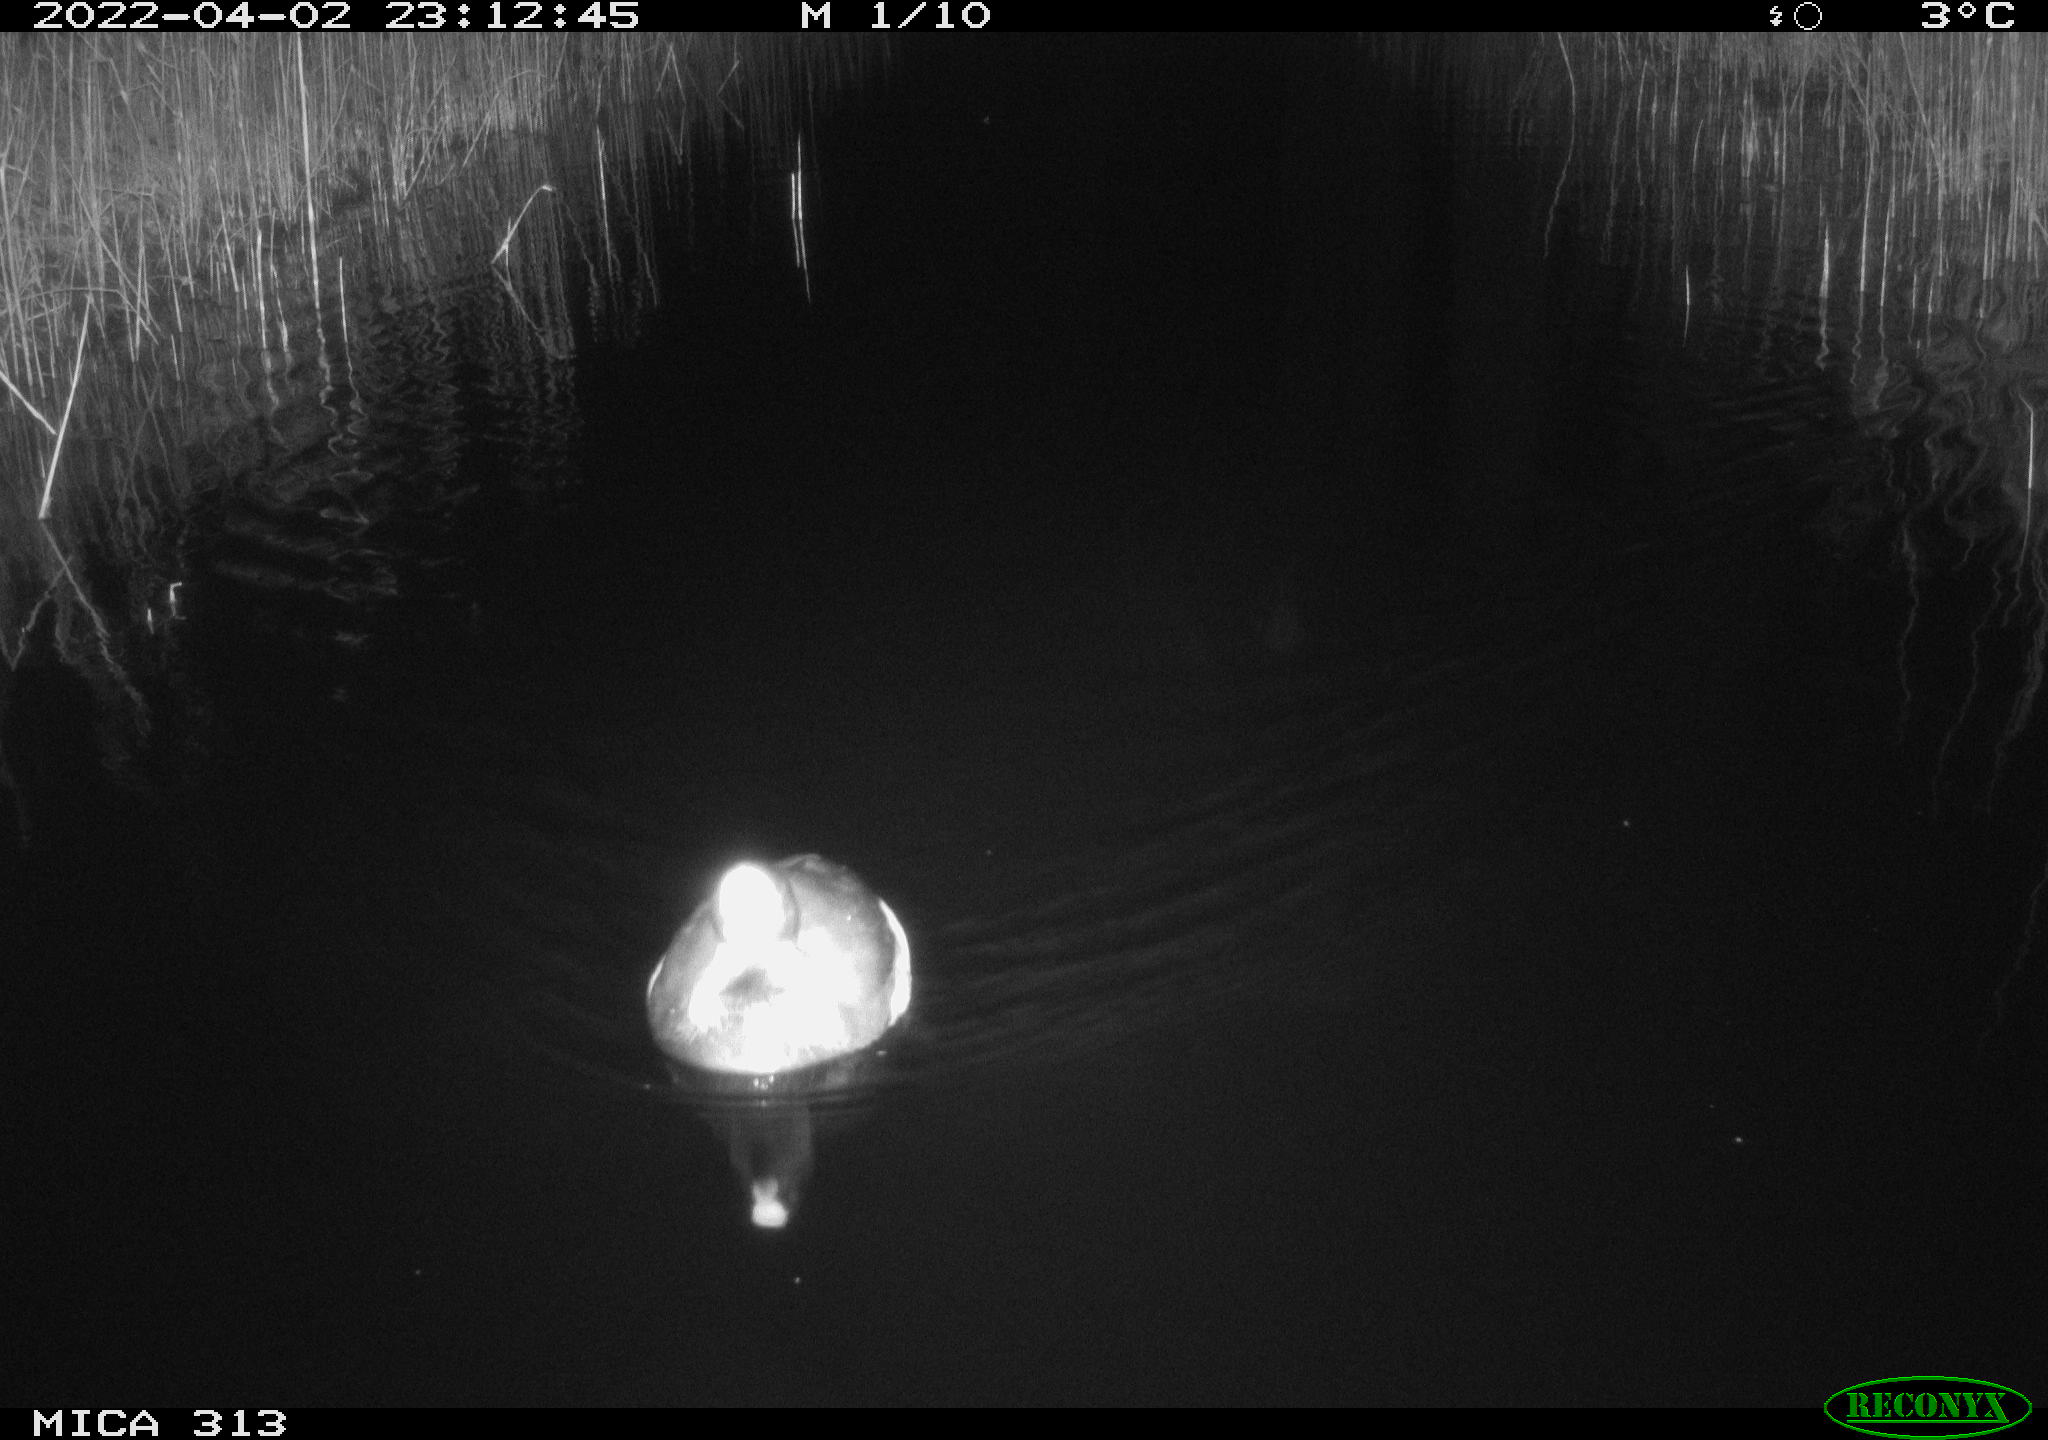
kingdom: Animalia
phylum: Chordata
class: Aves
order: Gruiformes
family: Rallidae
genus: Fulica
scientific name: Fulica atra
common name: Eurasian coot
